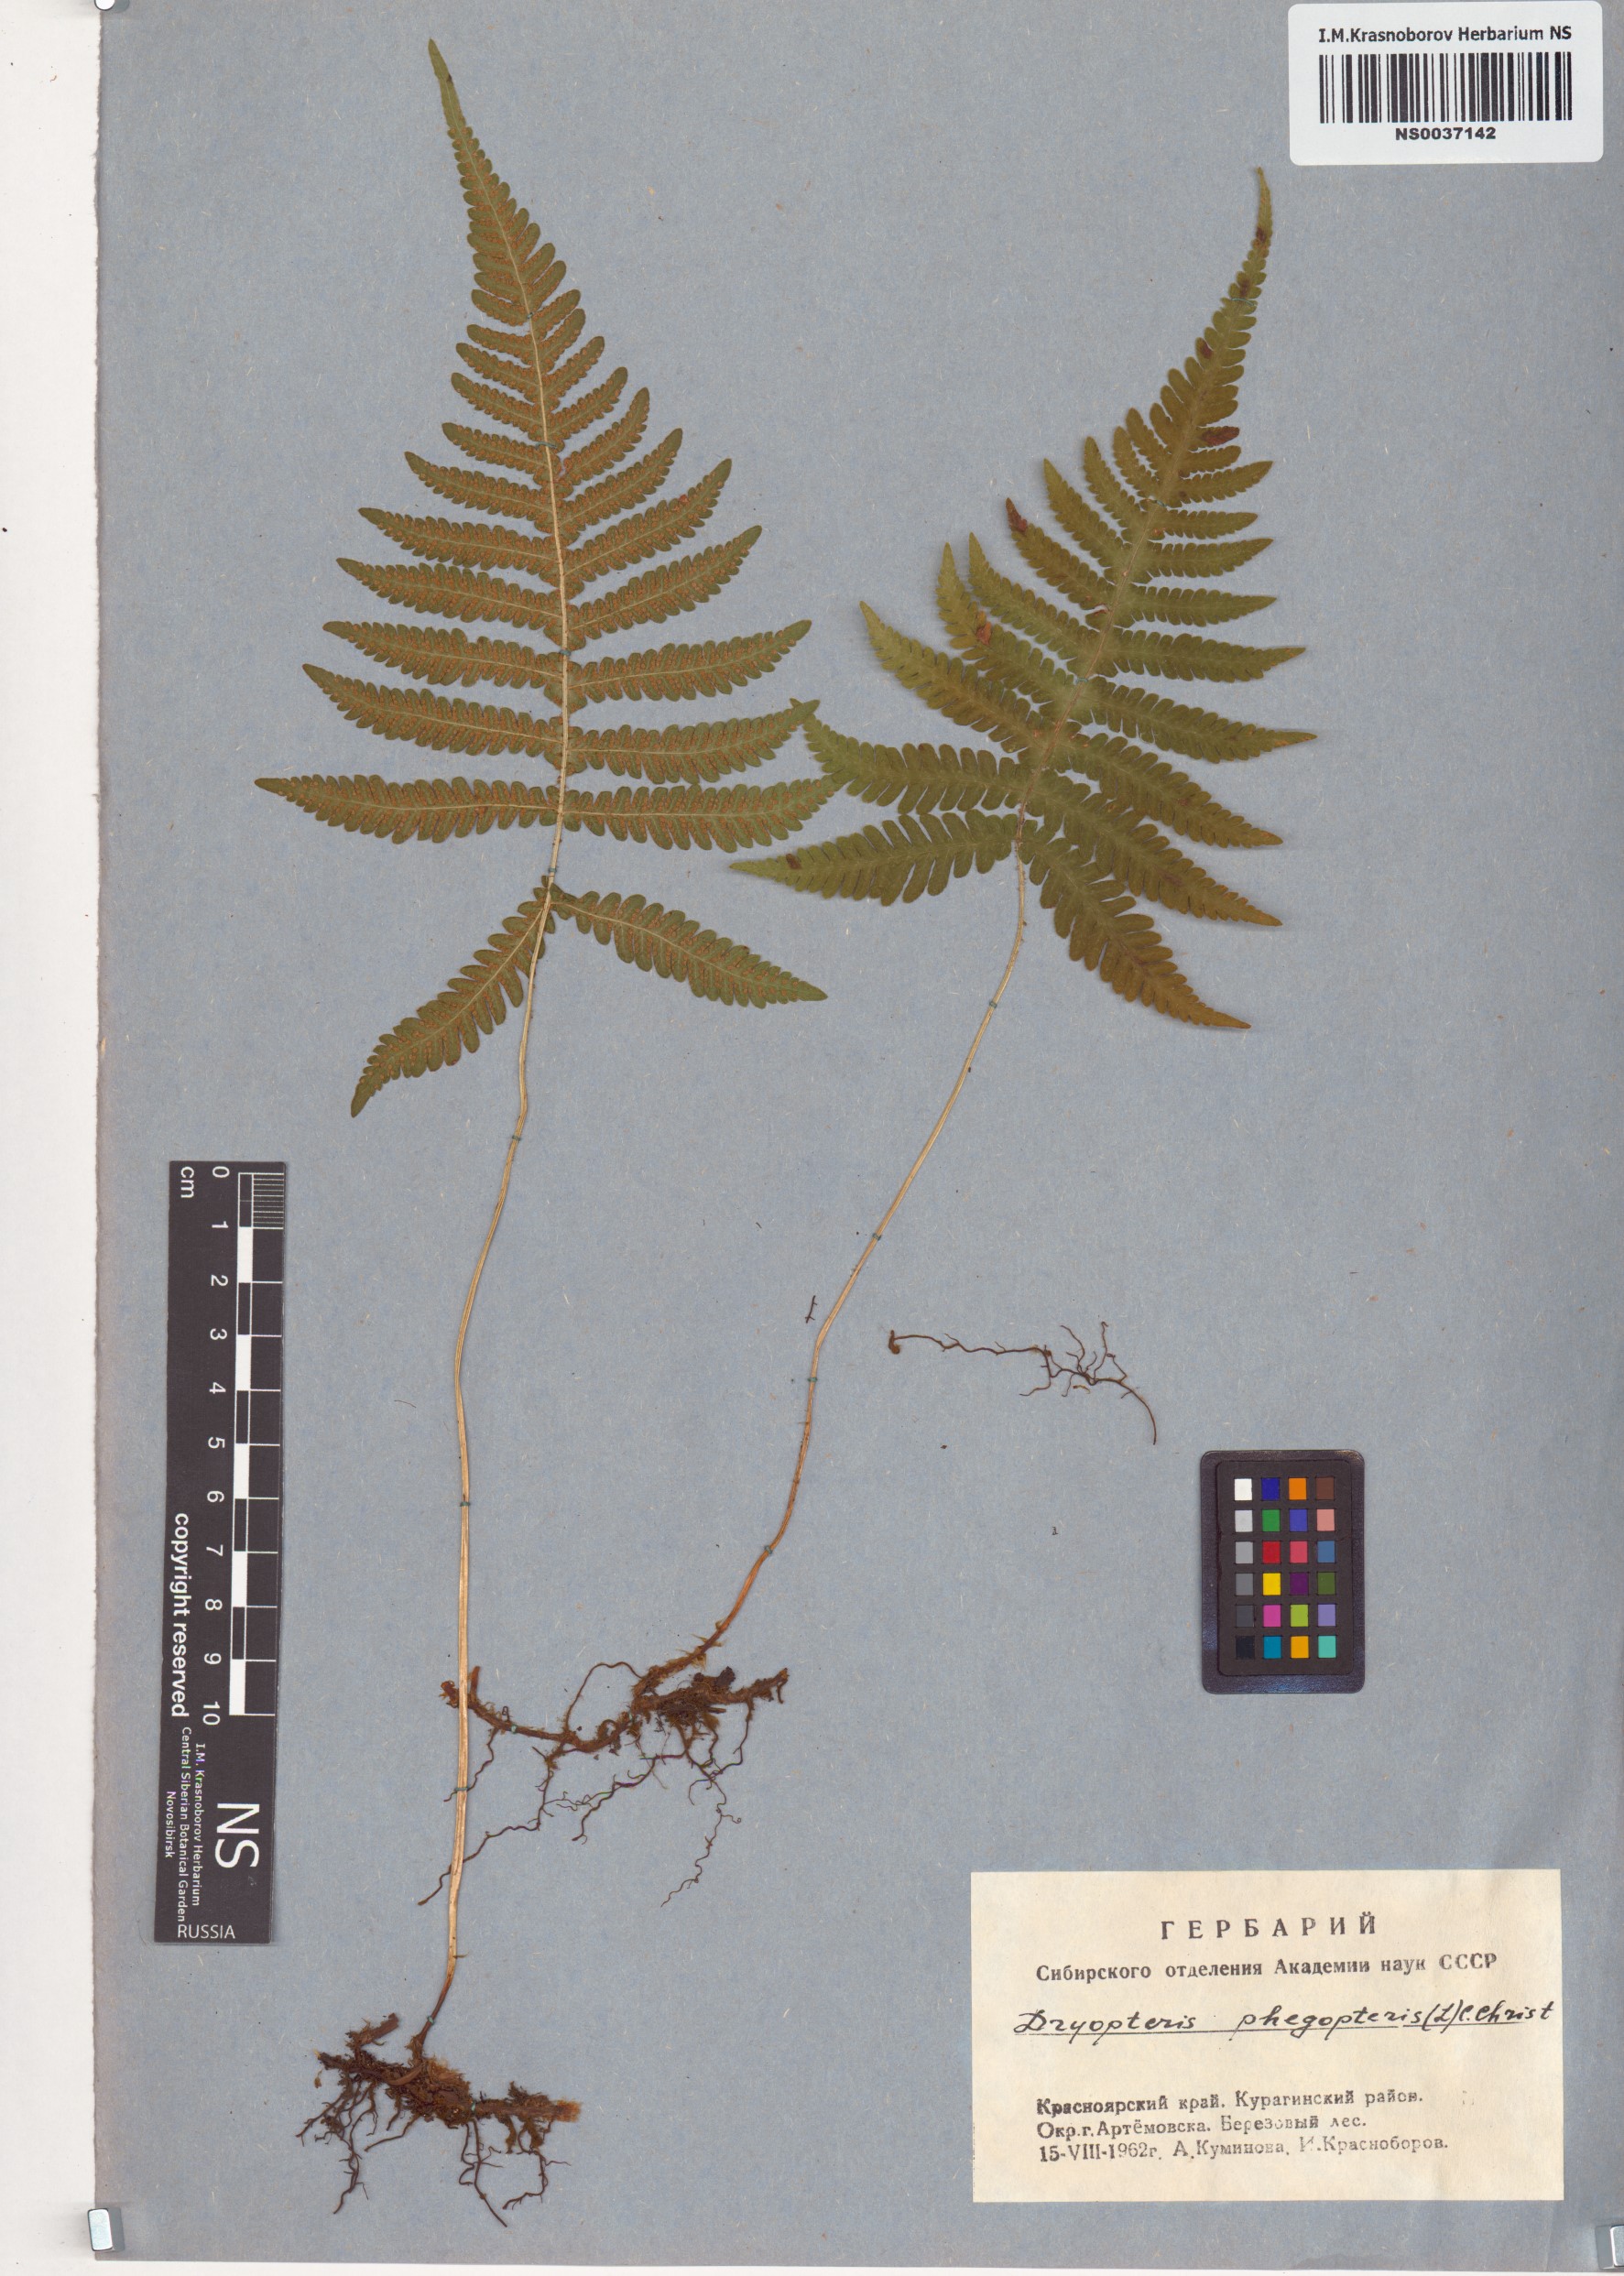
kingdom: Plantae
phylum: Tracheophyta
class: Polypodiopsida
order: Polypodiales
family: Thelypteridaceae
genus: Phegopteris
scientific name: Phegopteris connectilis
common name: Beech fern
